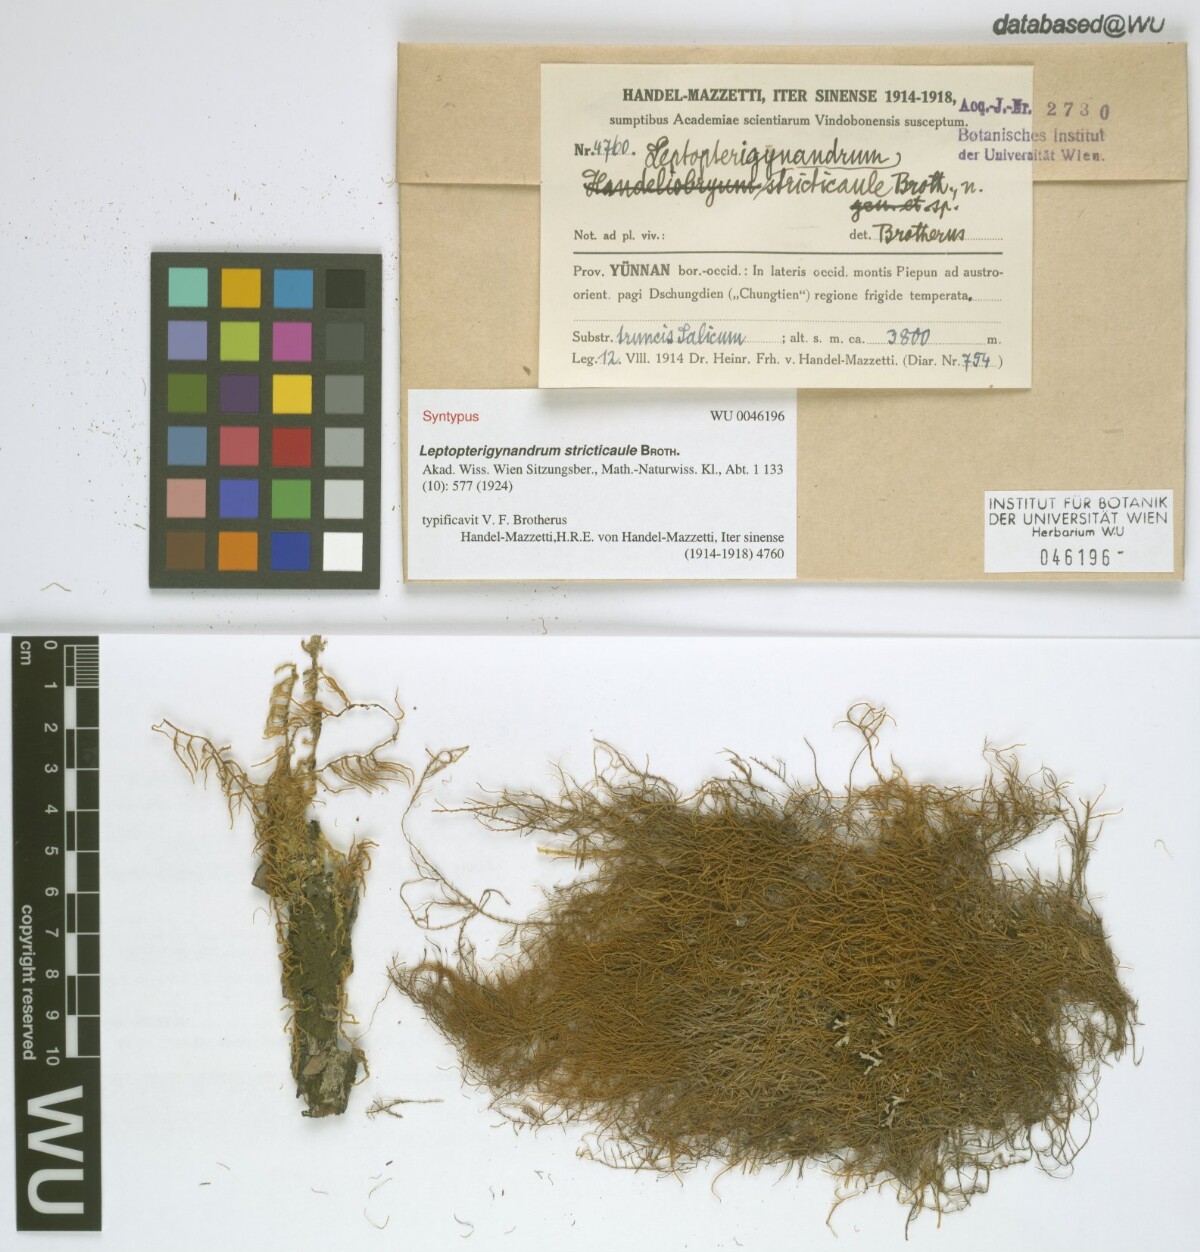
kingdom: Plantae
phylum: Bryophyta
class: Bryopsida
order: Hypnales
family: Taxiphyllaceae
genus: Leptopterigynandrum
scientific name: Leptopterigynandrum stricticaule
